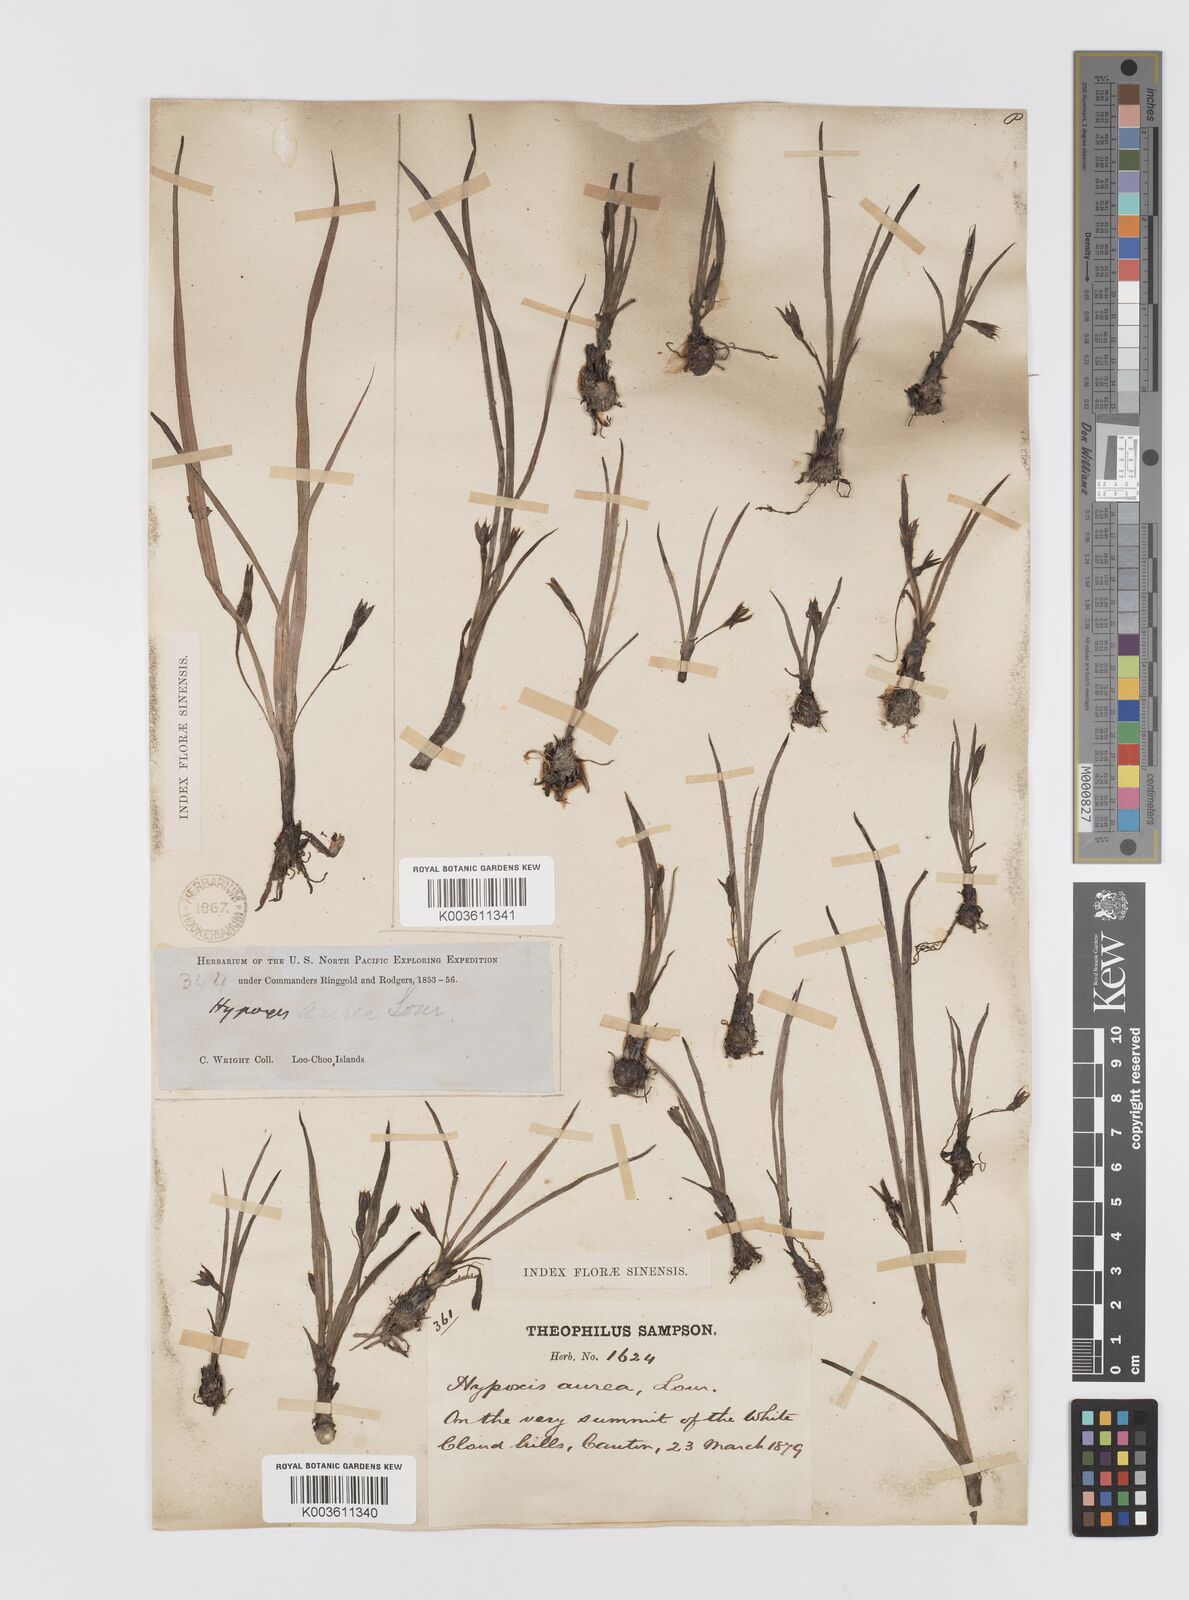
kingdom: Plantae
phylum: Tracheophyta
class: Liliopsida
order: Asparagales
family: Hypoxidaceae
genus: Hypoxis
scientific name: Hypoxis aurea
